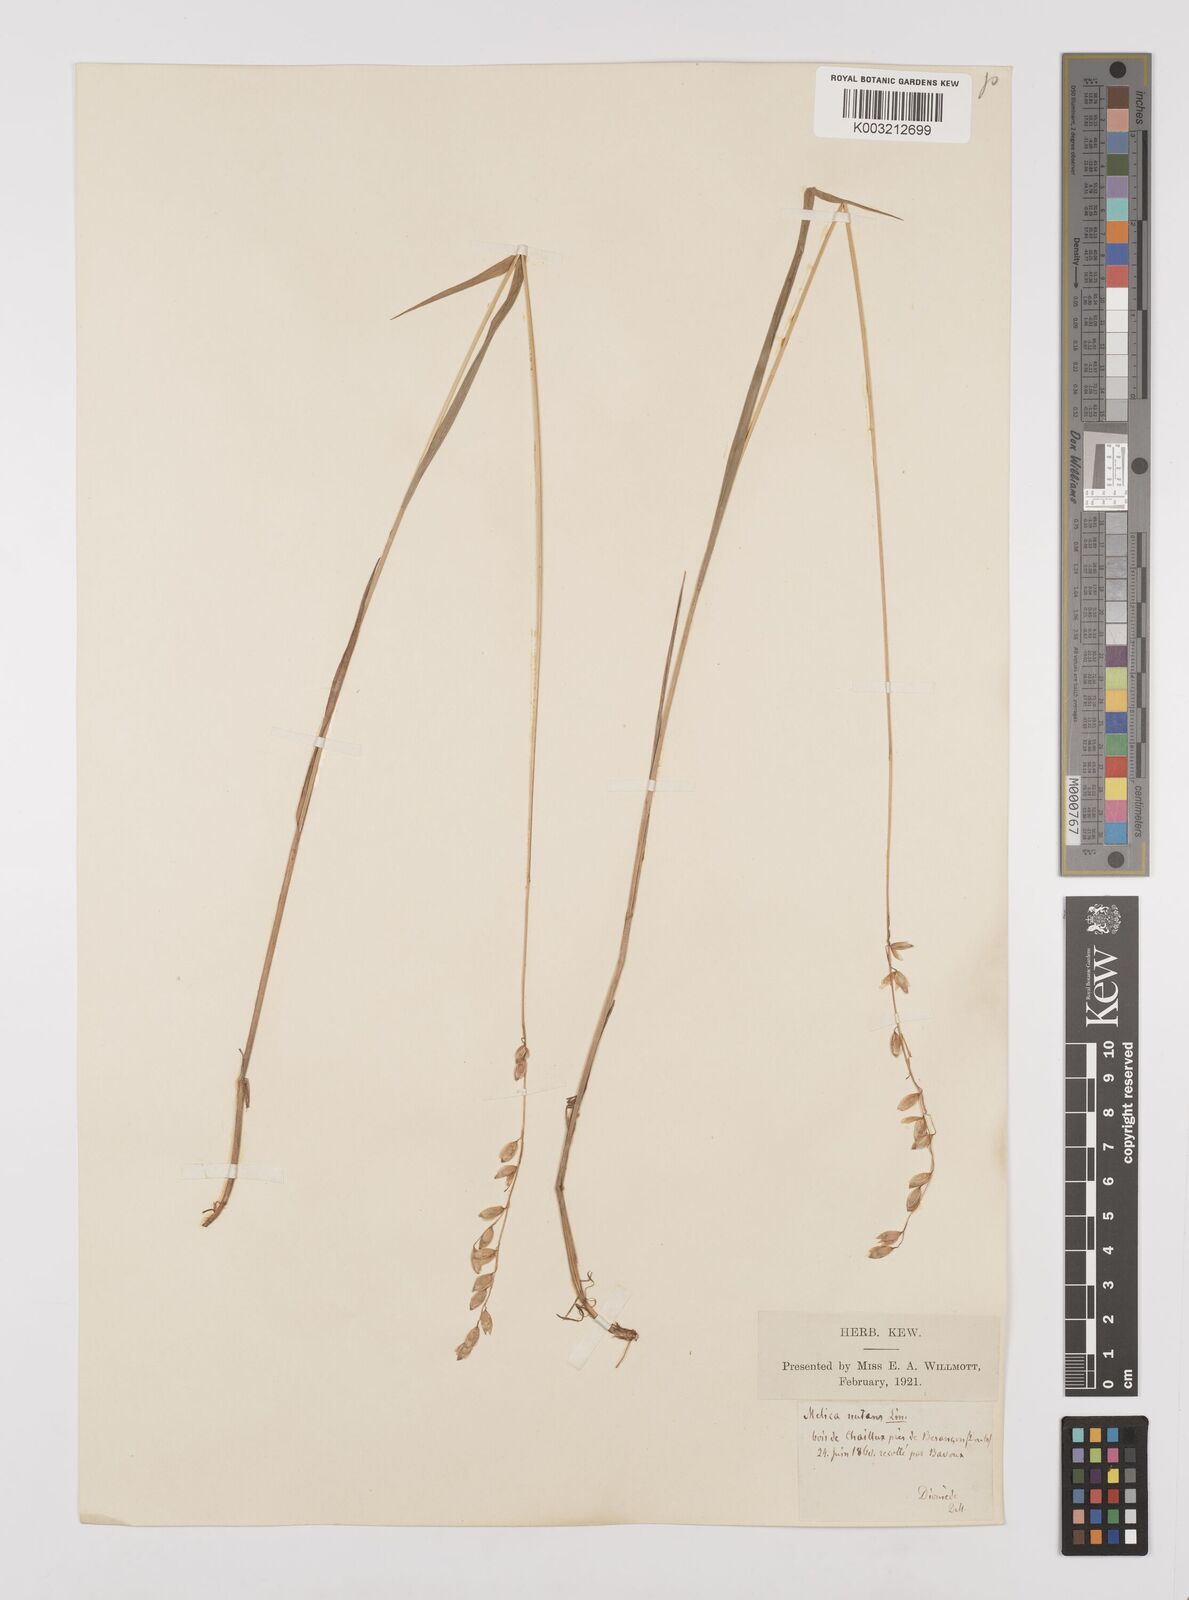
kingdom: Plantae
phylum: Tracheophyta
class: Liliopsida
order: Poales
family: Poaceae
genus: Melica
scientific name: Melica nutans
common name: Mountain melick
